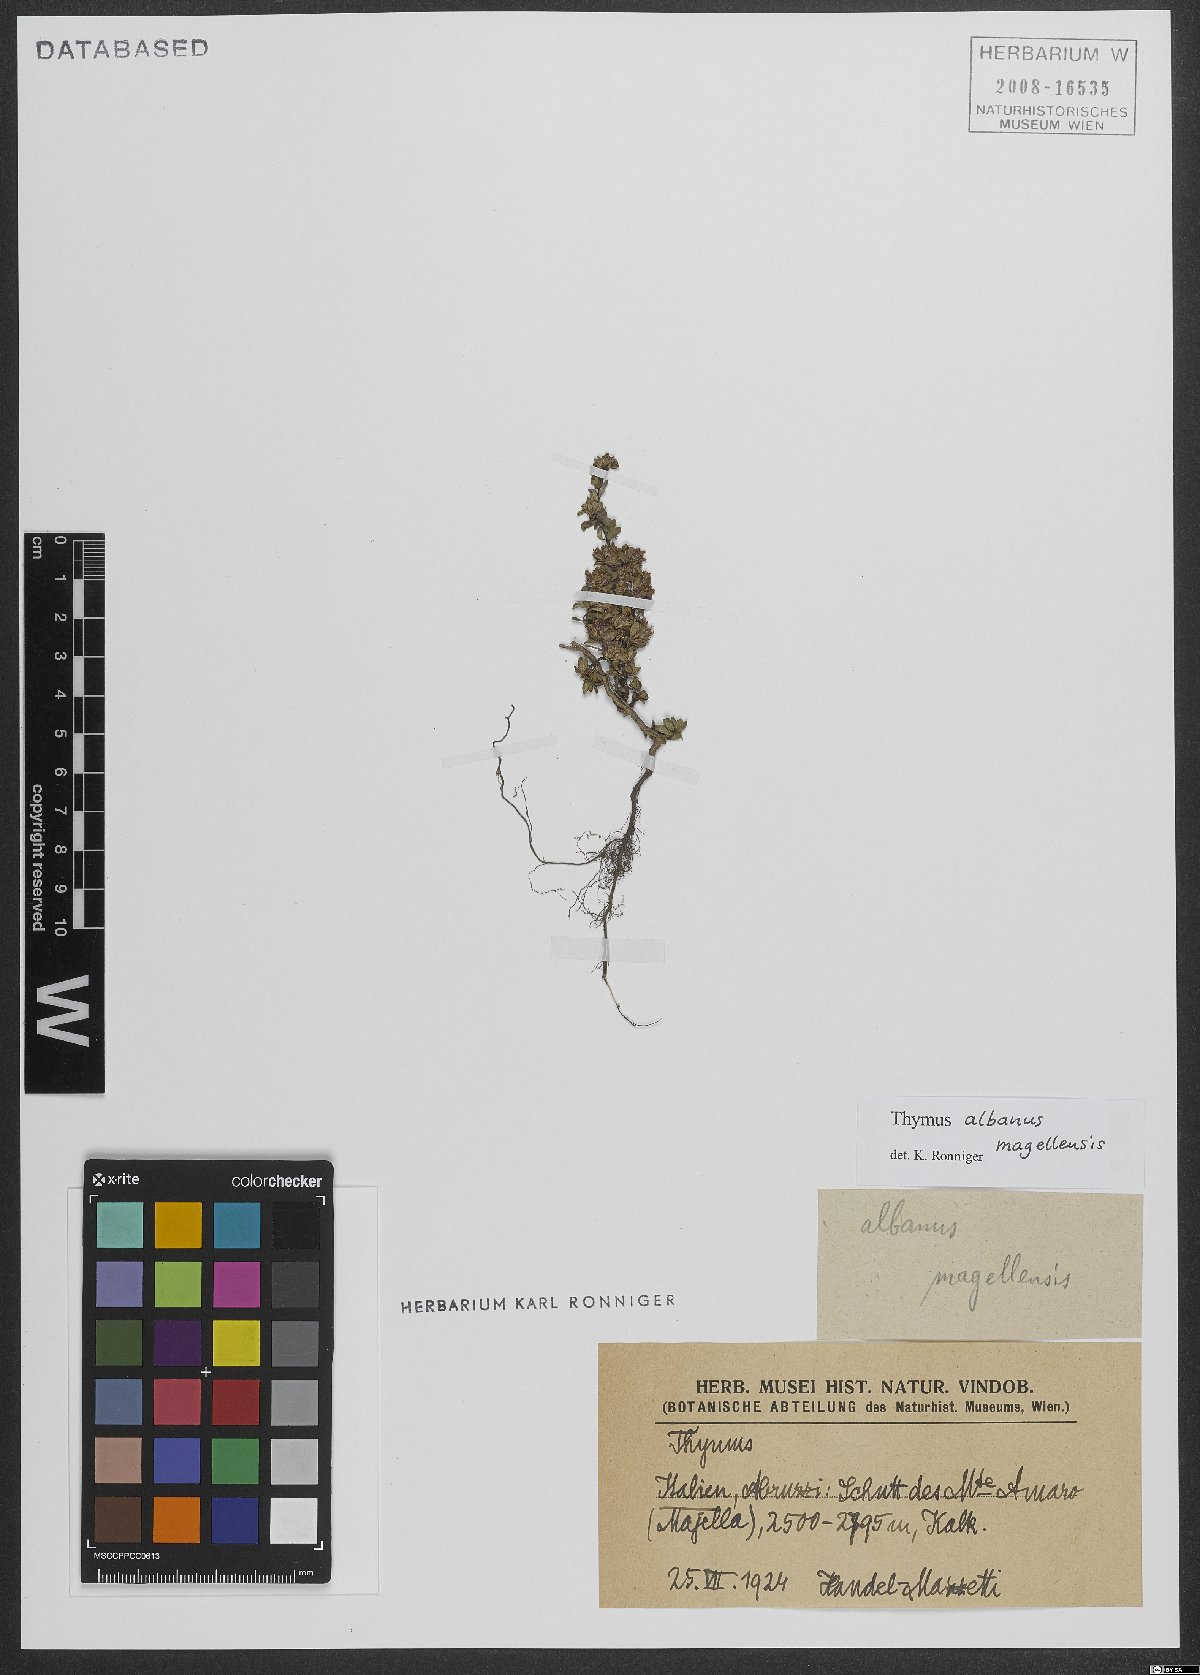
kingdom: Plantae
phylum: Tracheophyta
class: Magnoliopsida
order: Lamiales
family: Lamiaceae
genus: Thymus
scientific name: Thymus praecox
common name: Wild thyme
